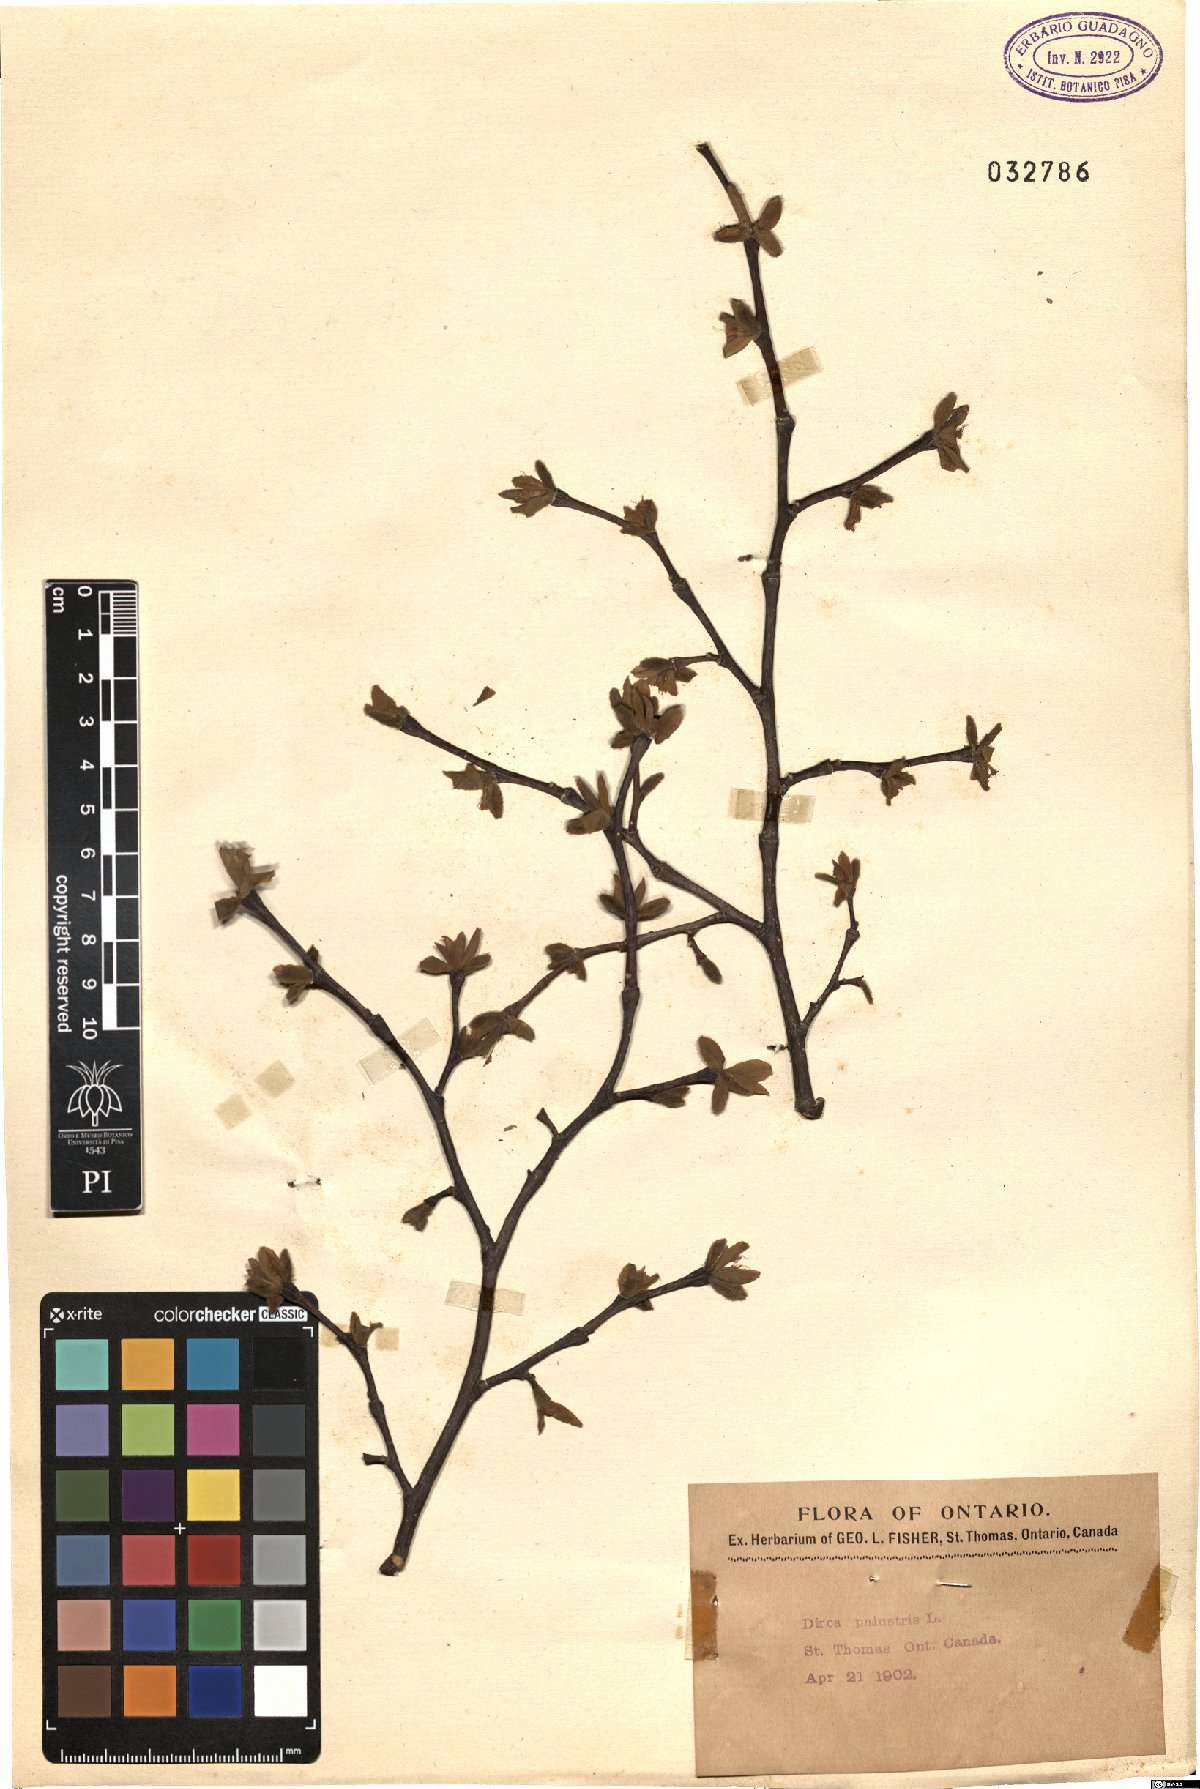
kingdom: Plantae
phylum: Tracheophyta
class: Magnoliopsida
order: Malvales
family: Thymelaeaceae
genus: Dirca
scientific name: Dirca palustris
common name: Leatherwood
